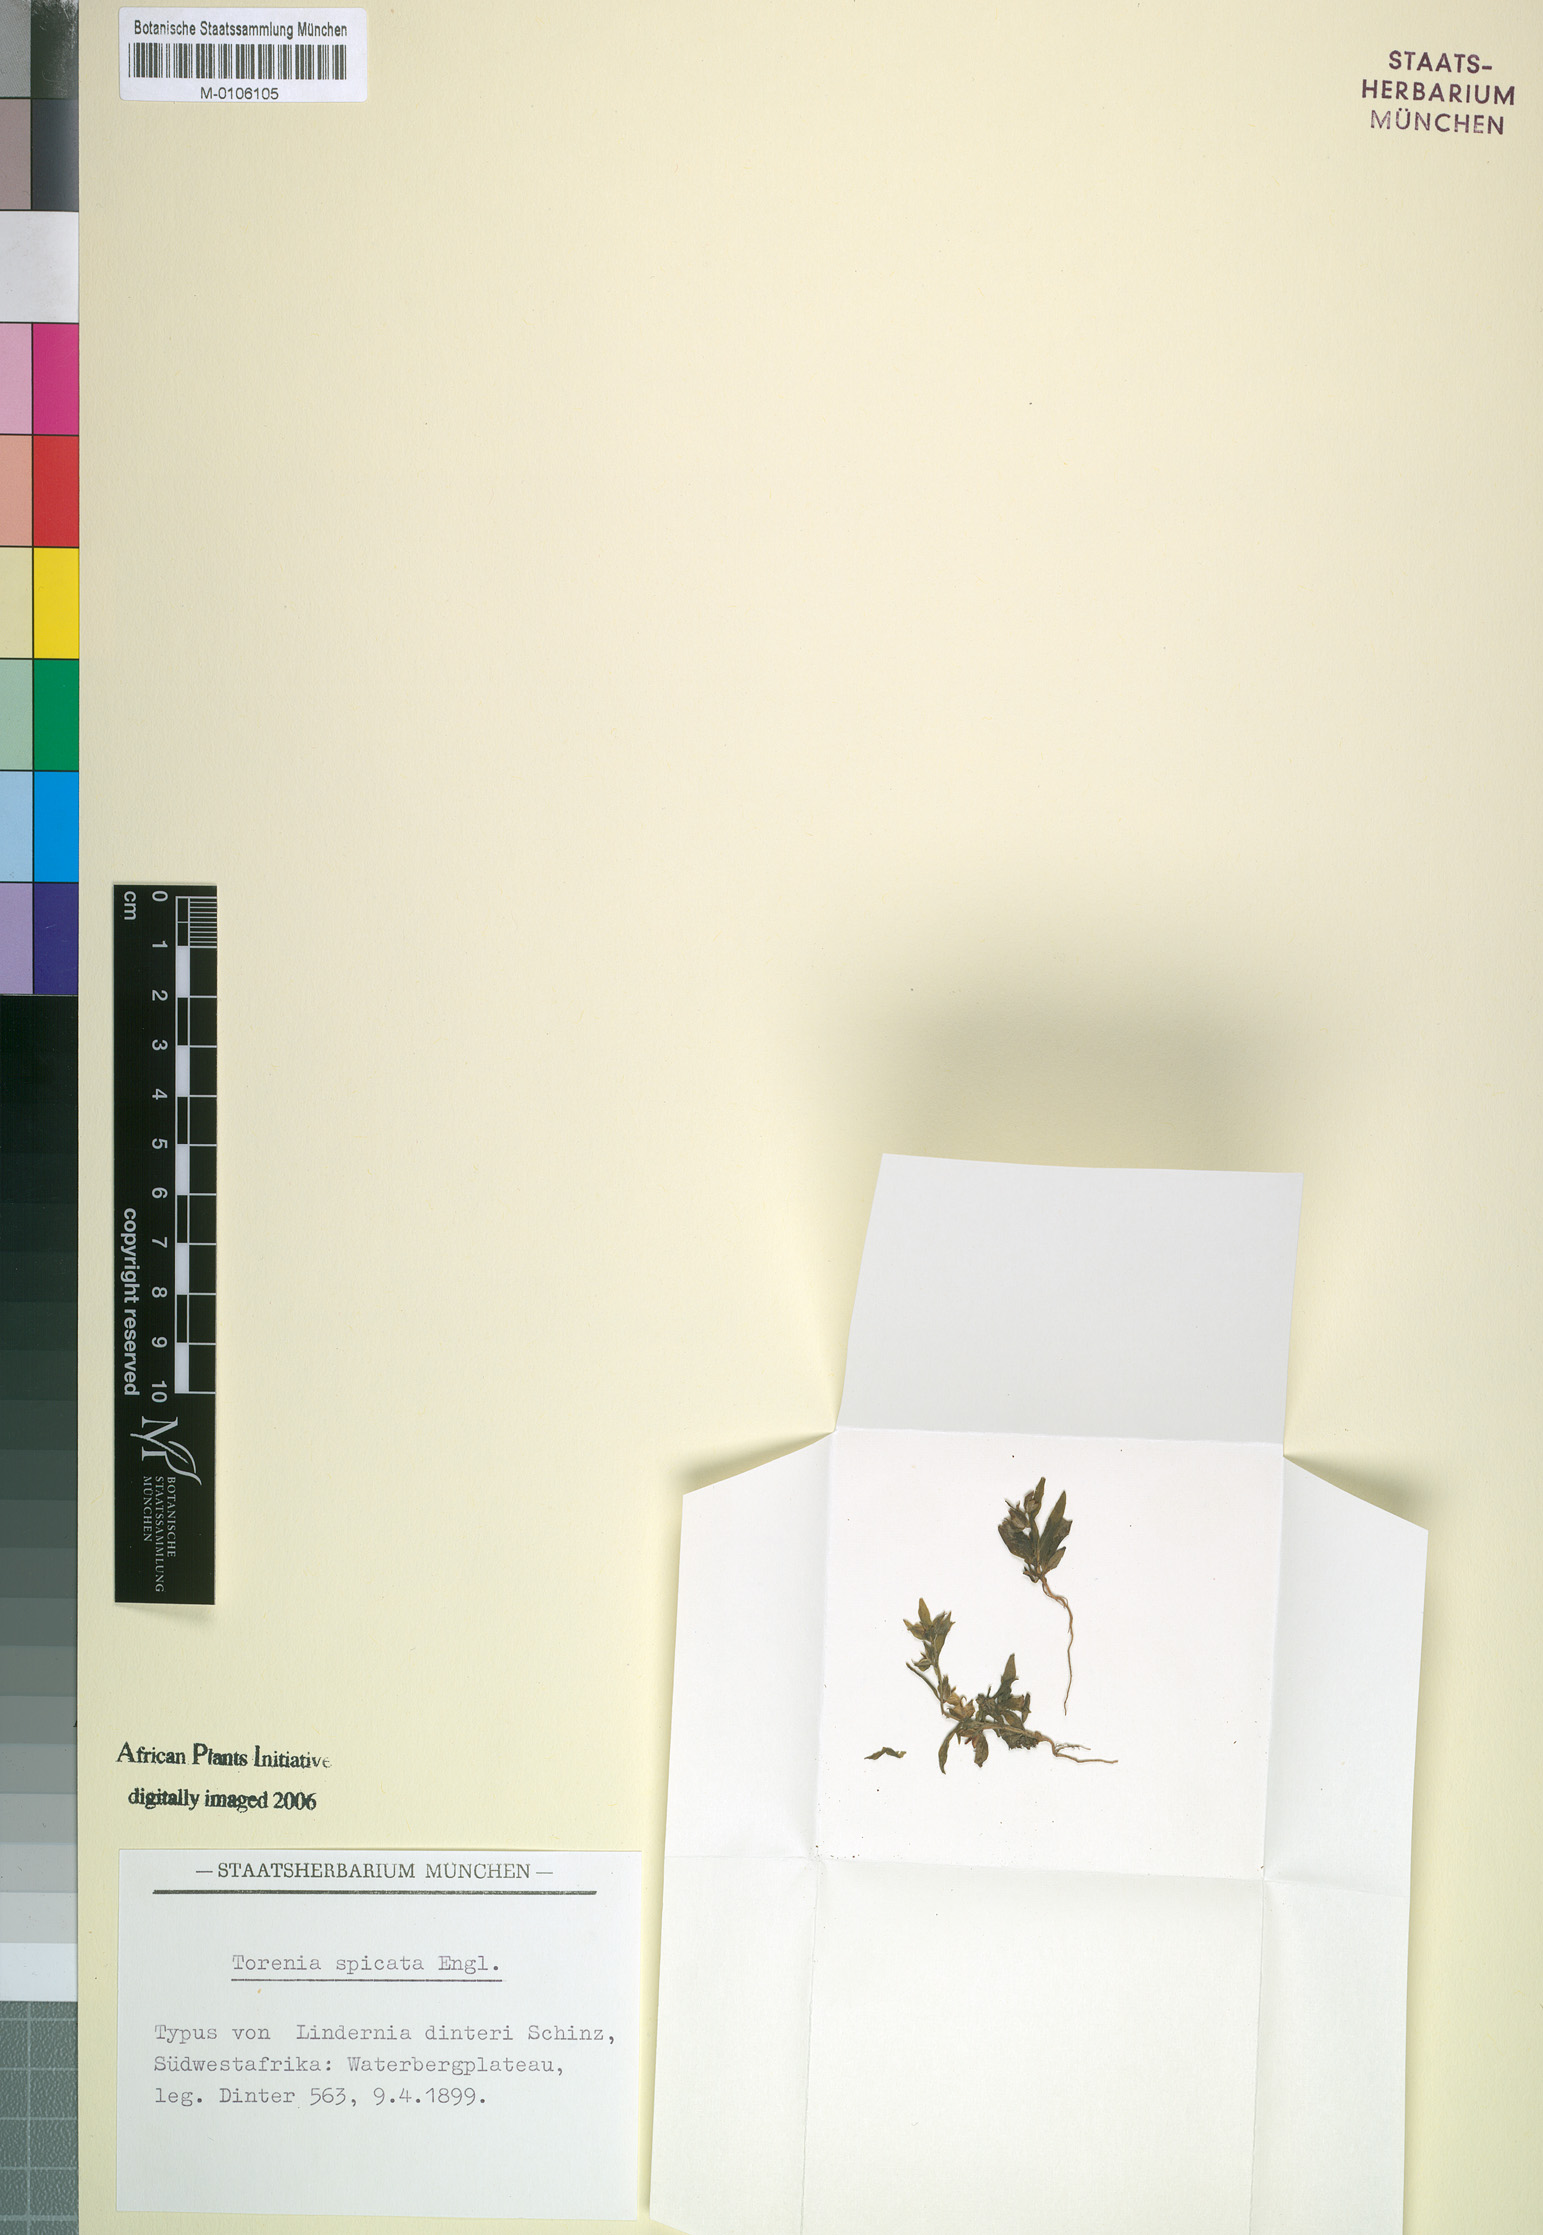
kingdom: Plantae
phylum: Tracheophyta
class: Magnoliopsida
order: Lamiales
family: Linderniaceae
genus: Crepidorhopalon
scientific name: Crepidorhopalon spicatus
